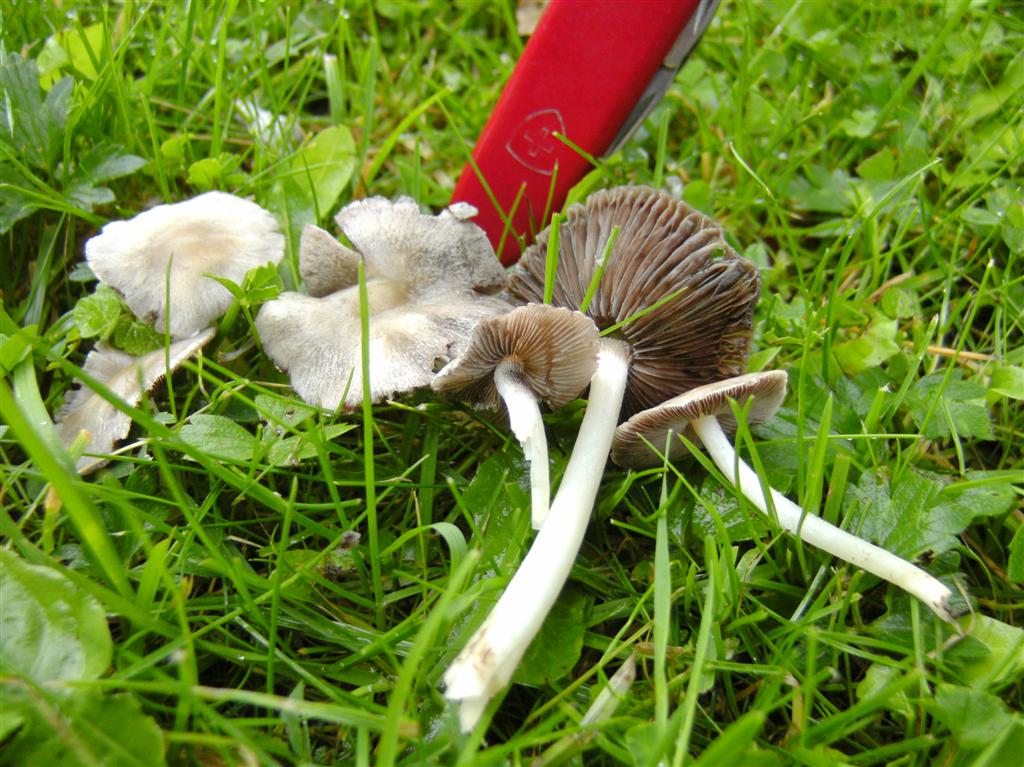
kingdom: Fungi
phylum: Basidiomycota
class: Agaricomycetes
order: Agaricales
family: Psathyrellaceae
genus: Candolleomyces
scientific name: Candolleomyces candolleanus
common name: Candolles mørkhat
